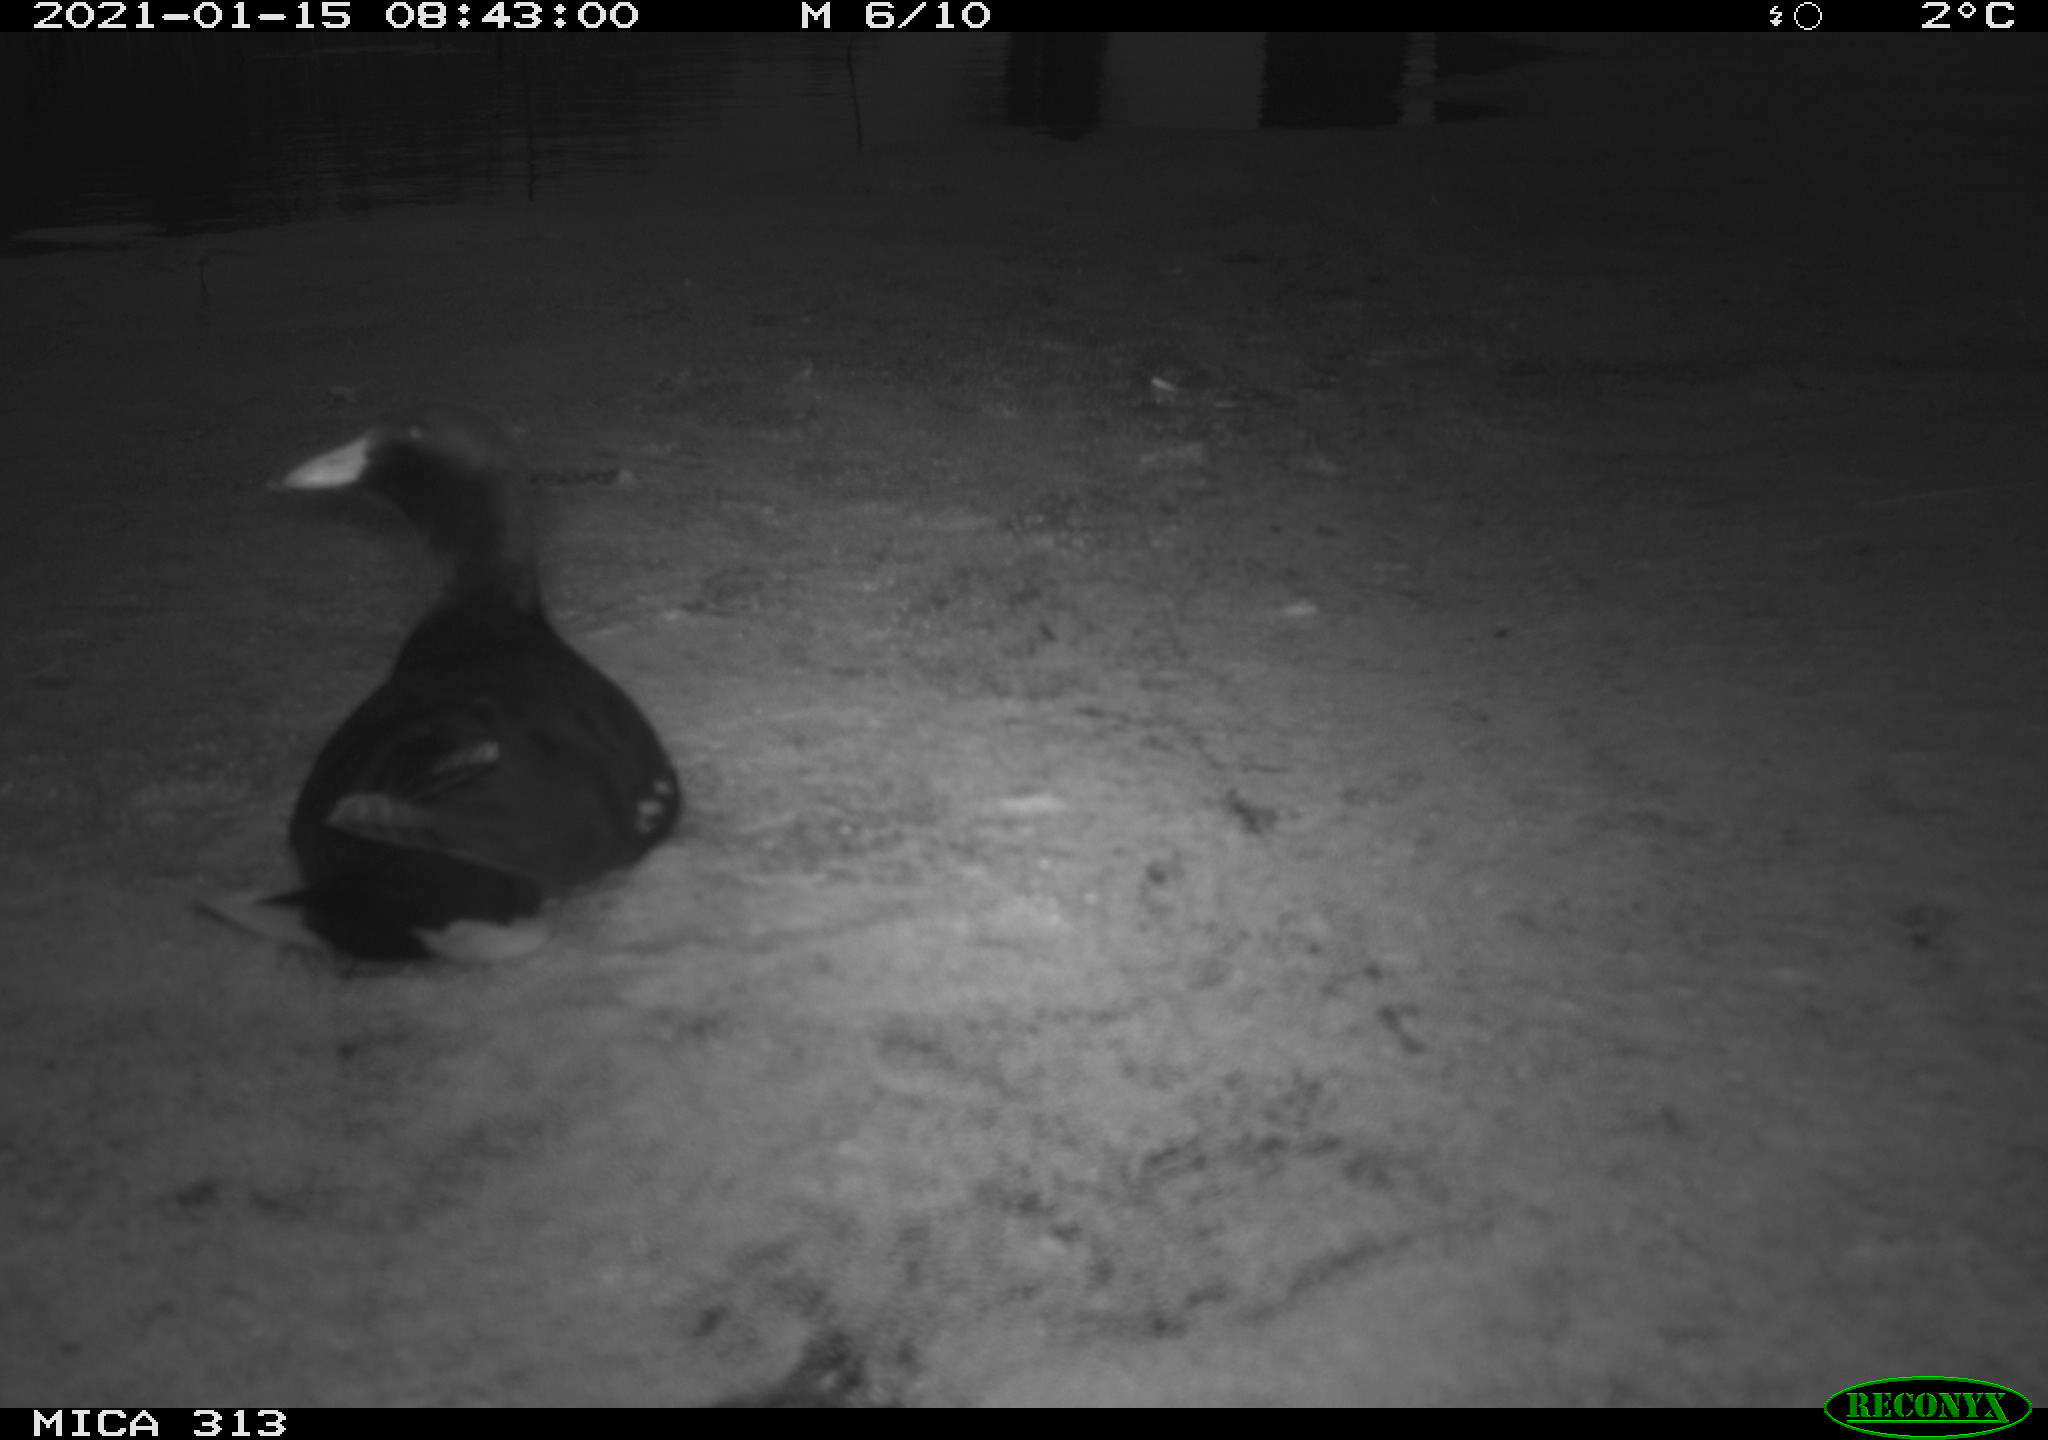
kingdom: Animalia
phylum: Chordata
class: Aves
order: Gruiformes
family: Rallidae
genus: Fulica
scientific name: Fulica atra
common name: Eurasian coot
